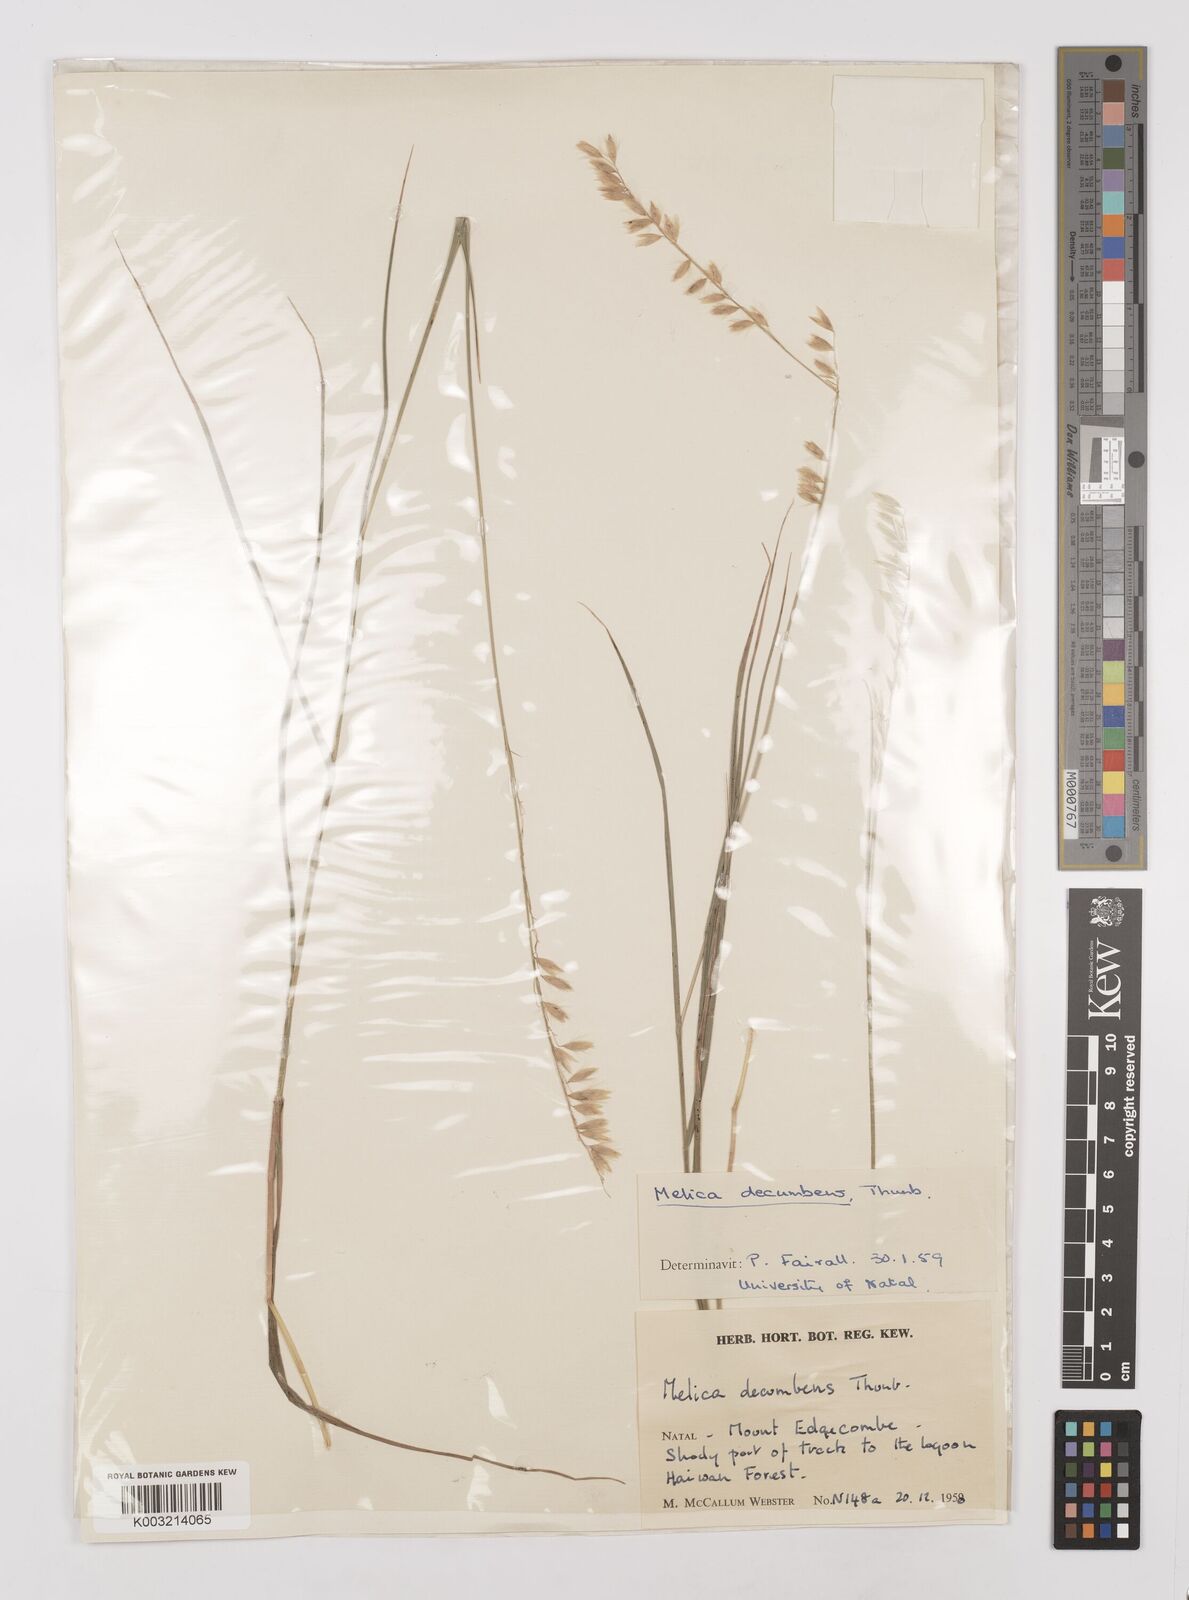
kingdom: Plantae
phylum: Tracheophyta
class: Liliopsida
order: Poales
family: Poaceae
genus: Melica
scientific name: Melica dendroides
